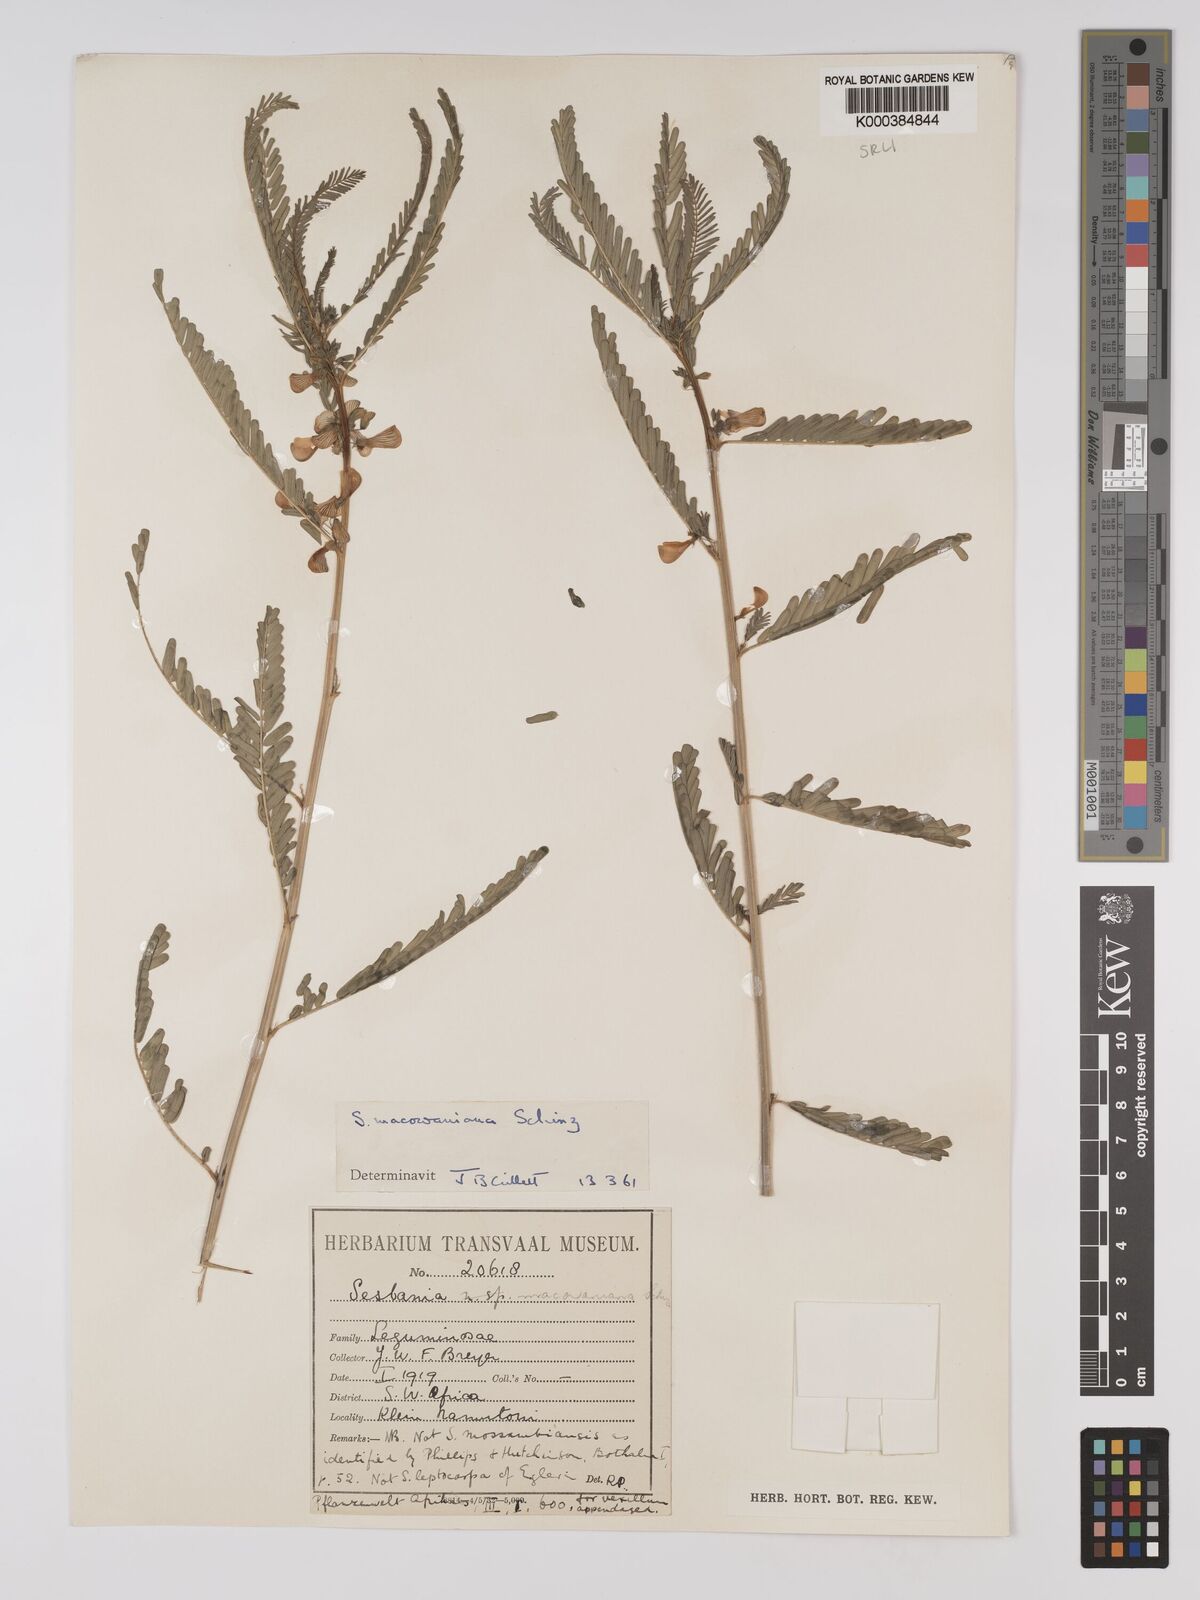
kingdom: Plantae
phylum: Tracheophyta
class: Magnoliopsida
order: Fabales
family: Fabaceae
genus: Sesbania
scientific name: Sesbania macowaniana
